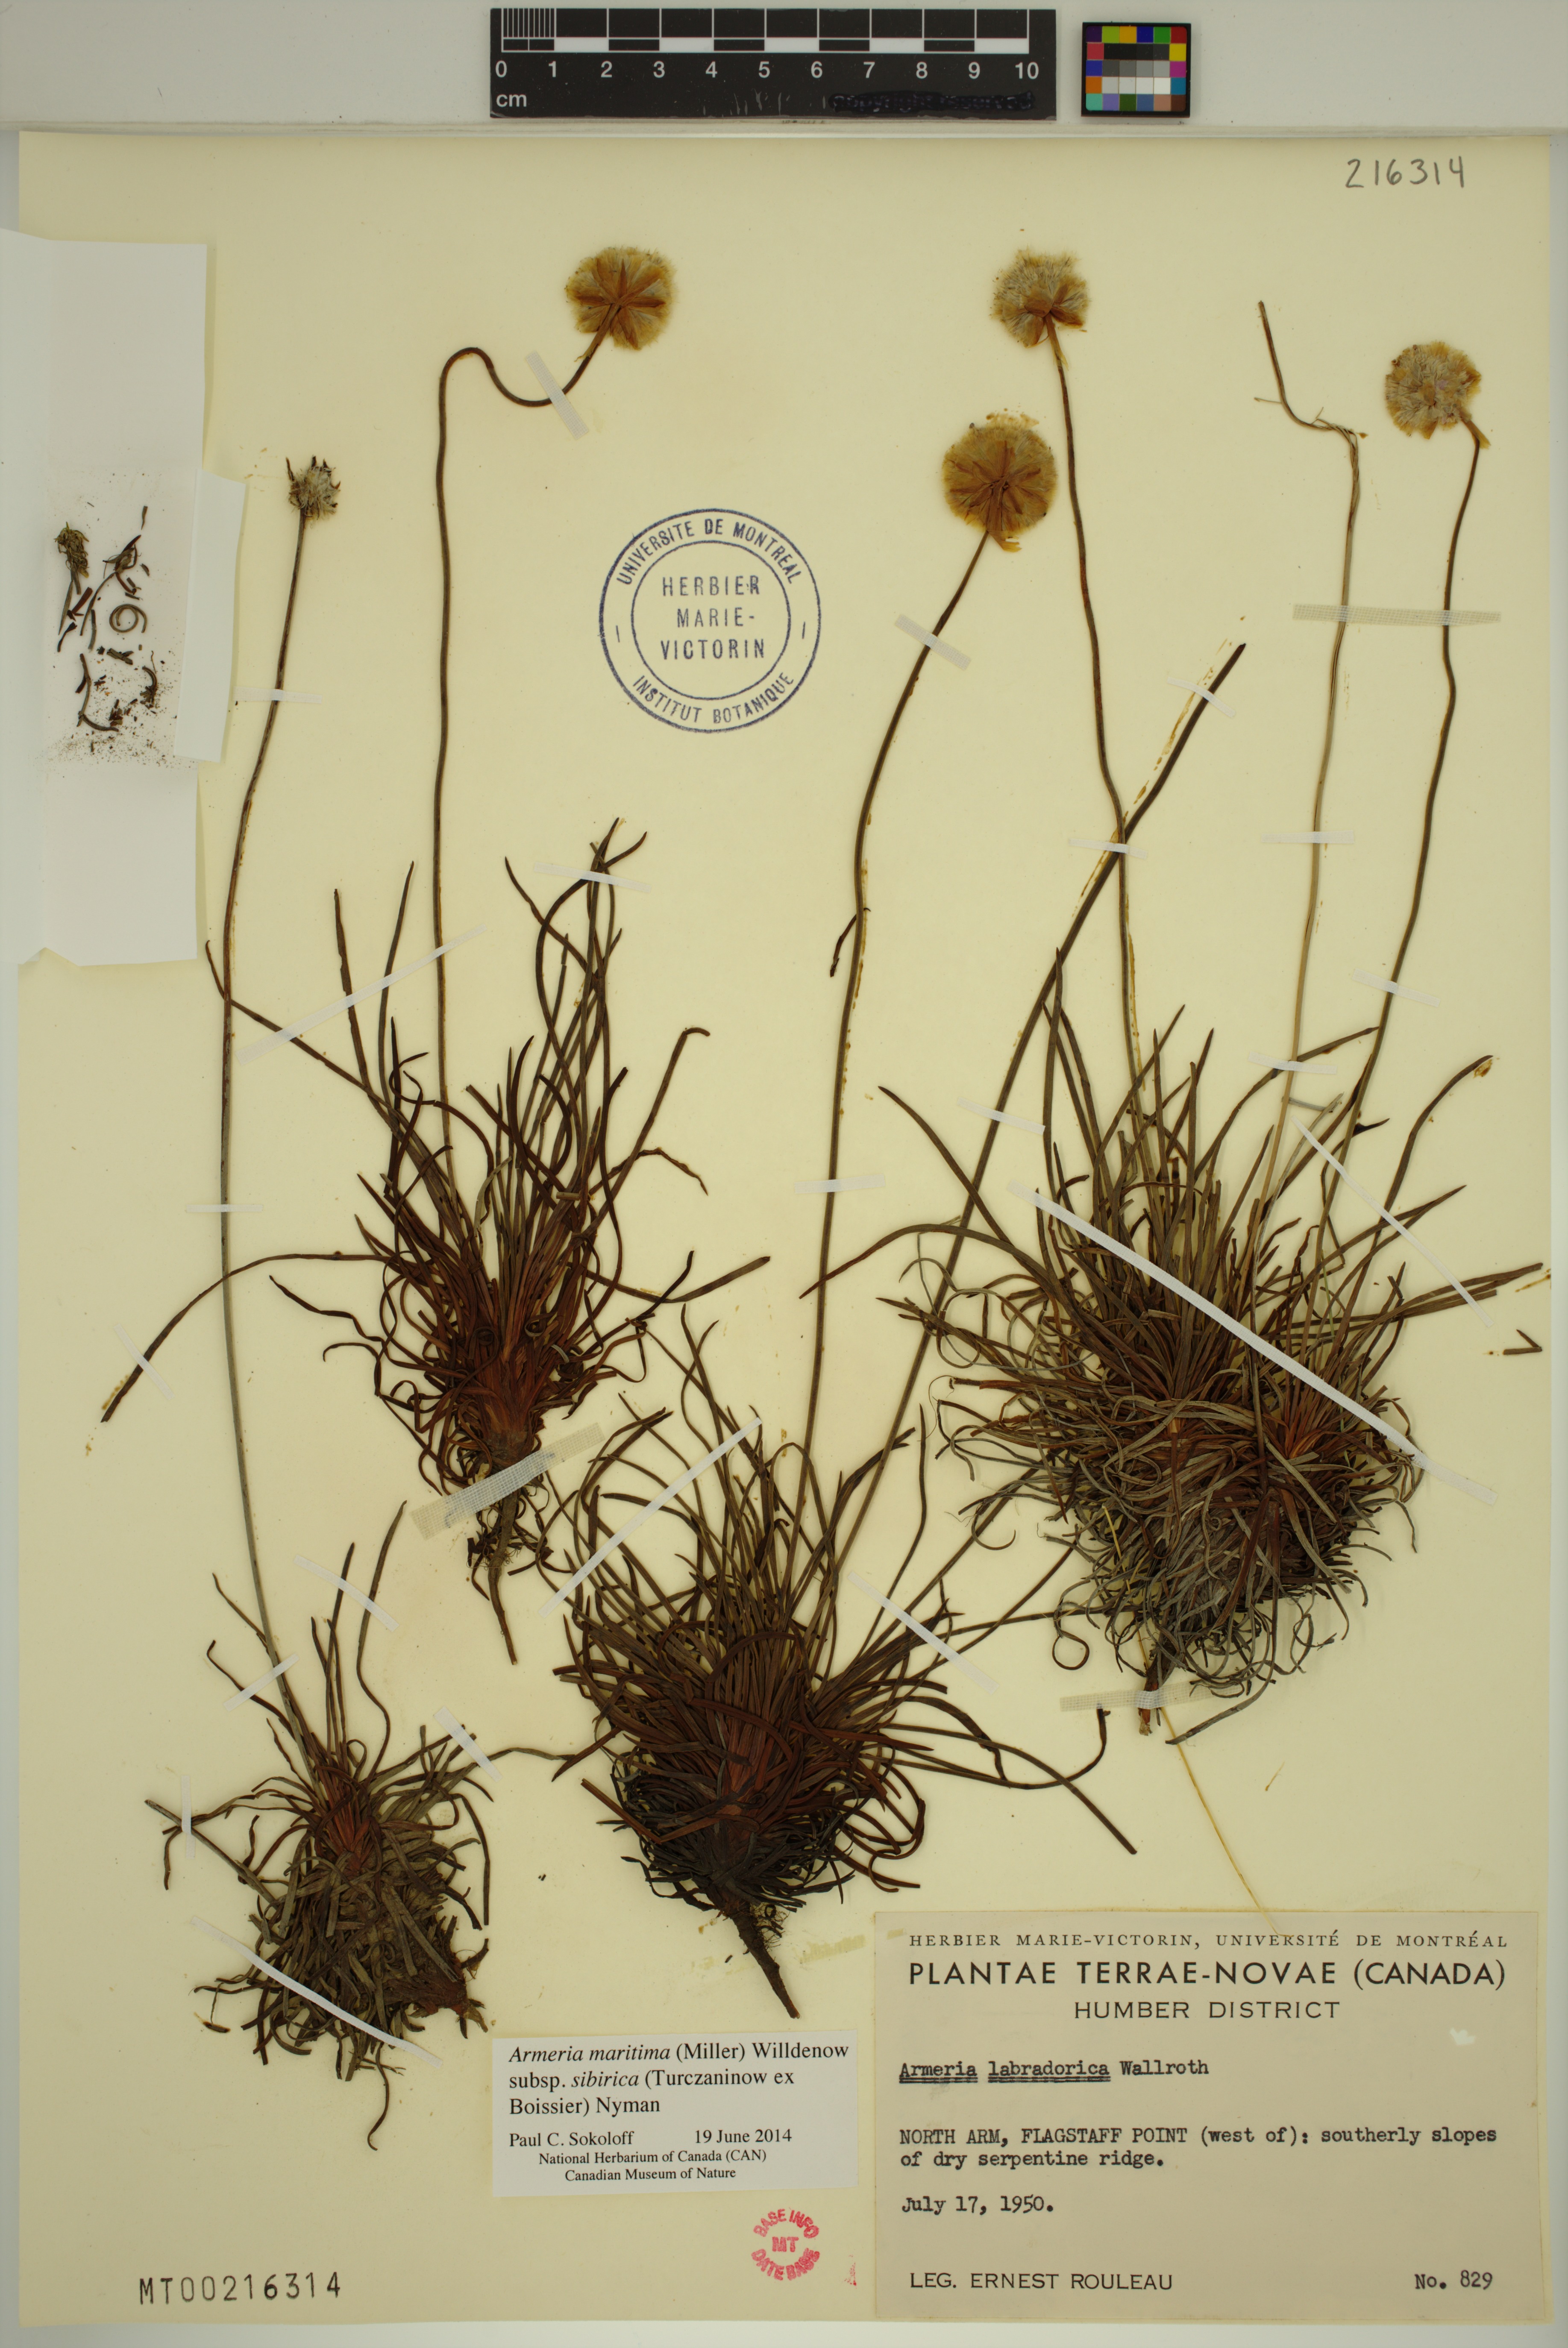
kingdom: Plantae
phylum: Tracheophyta
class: Magnoliopsida
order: Caryophyllales
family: Plumbaginaceae
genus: Armeria
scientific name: Armeria maritima
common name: Thrift
